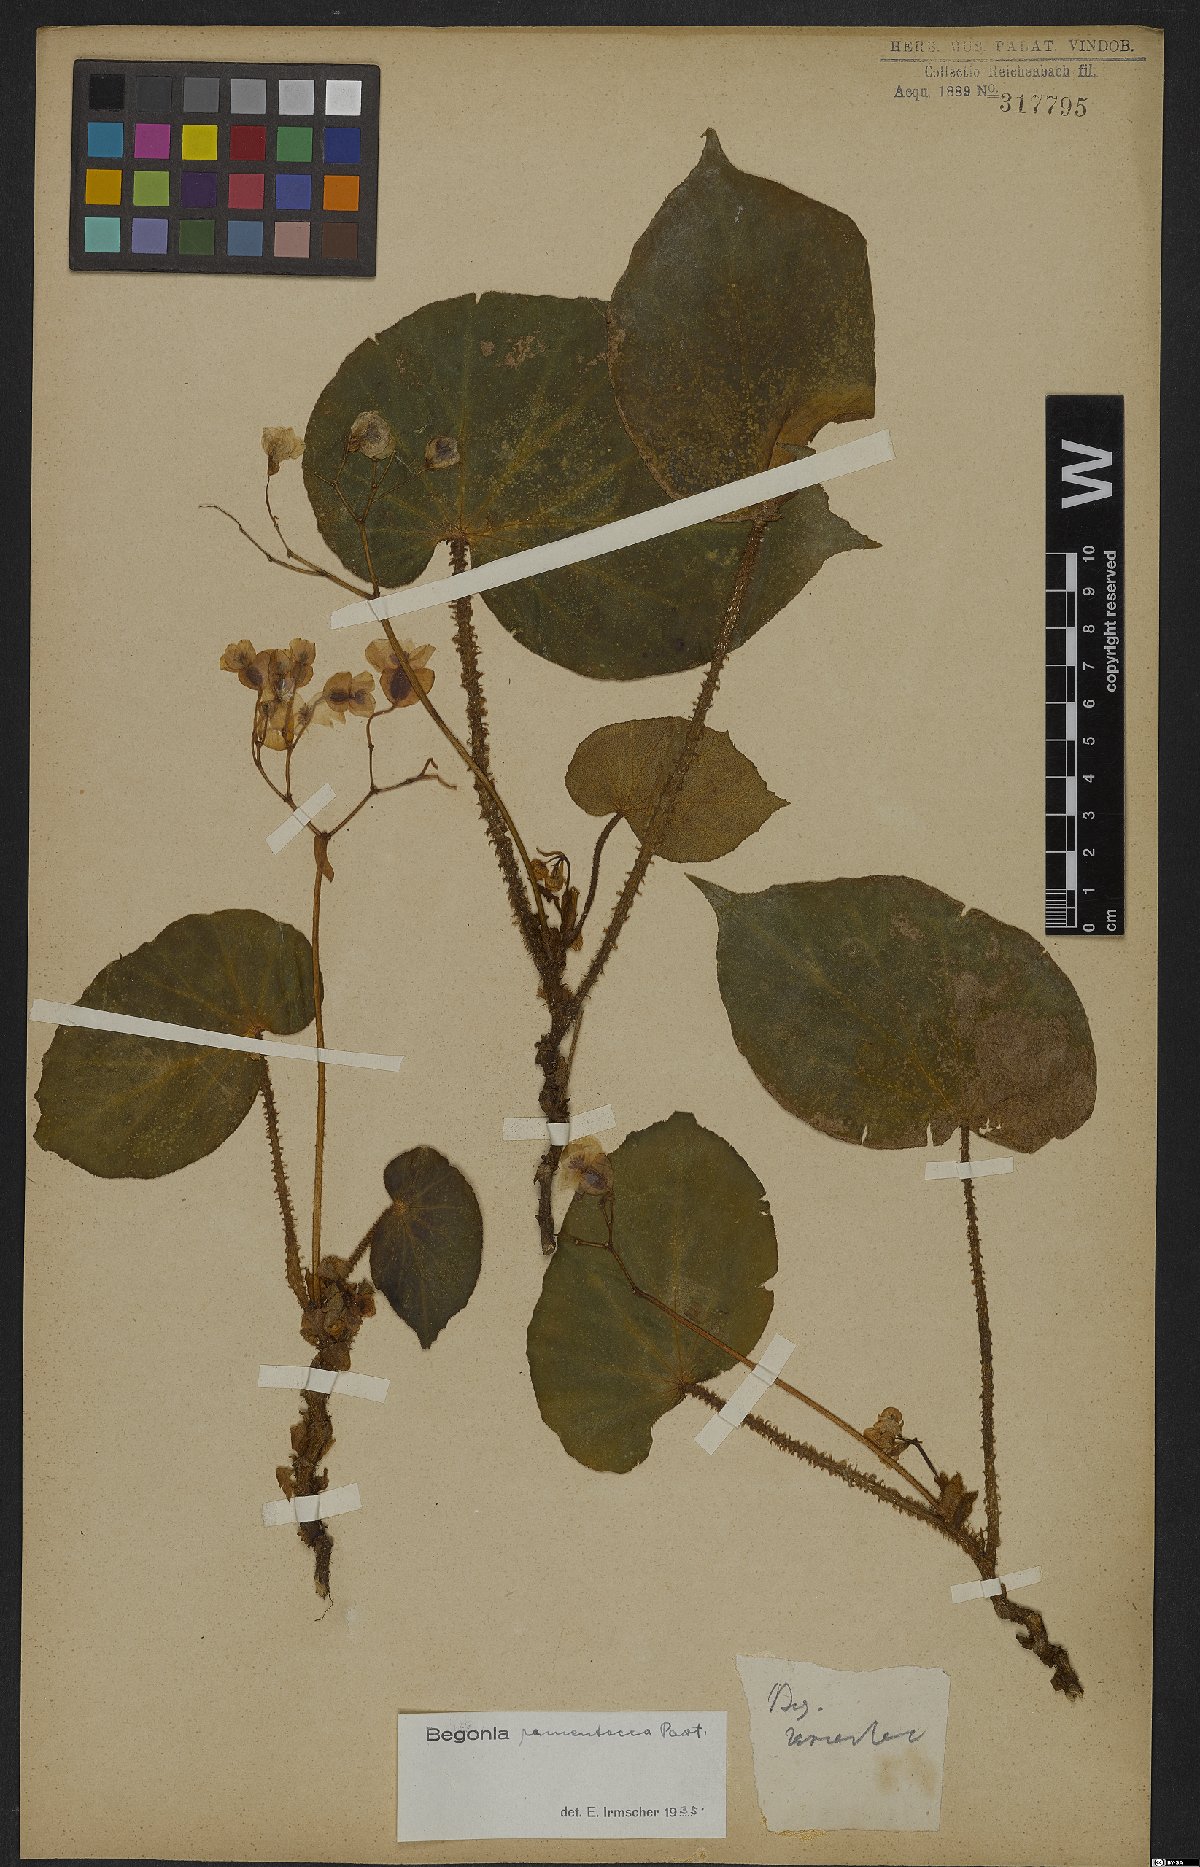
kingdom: Plantae
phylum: Tracheophyta
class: Magnoliopsida
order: Cucurbitales
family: Begoniaceae
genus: Begonia
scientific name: Begonia ramentacea
